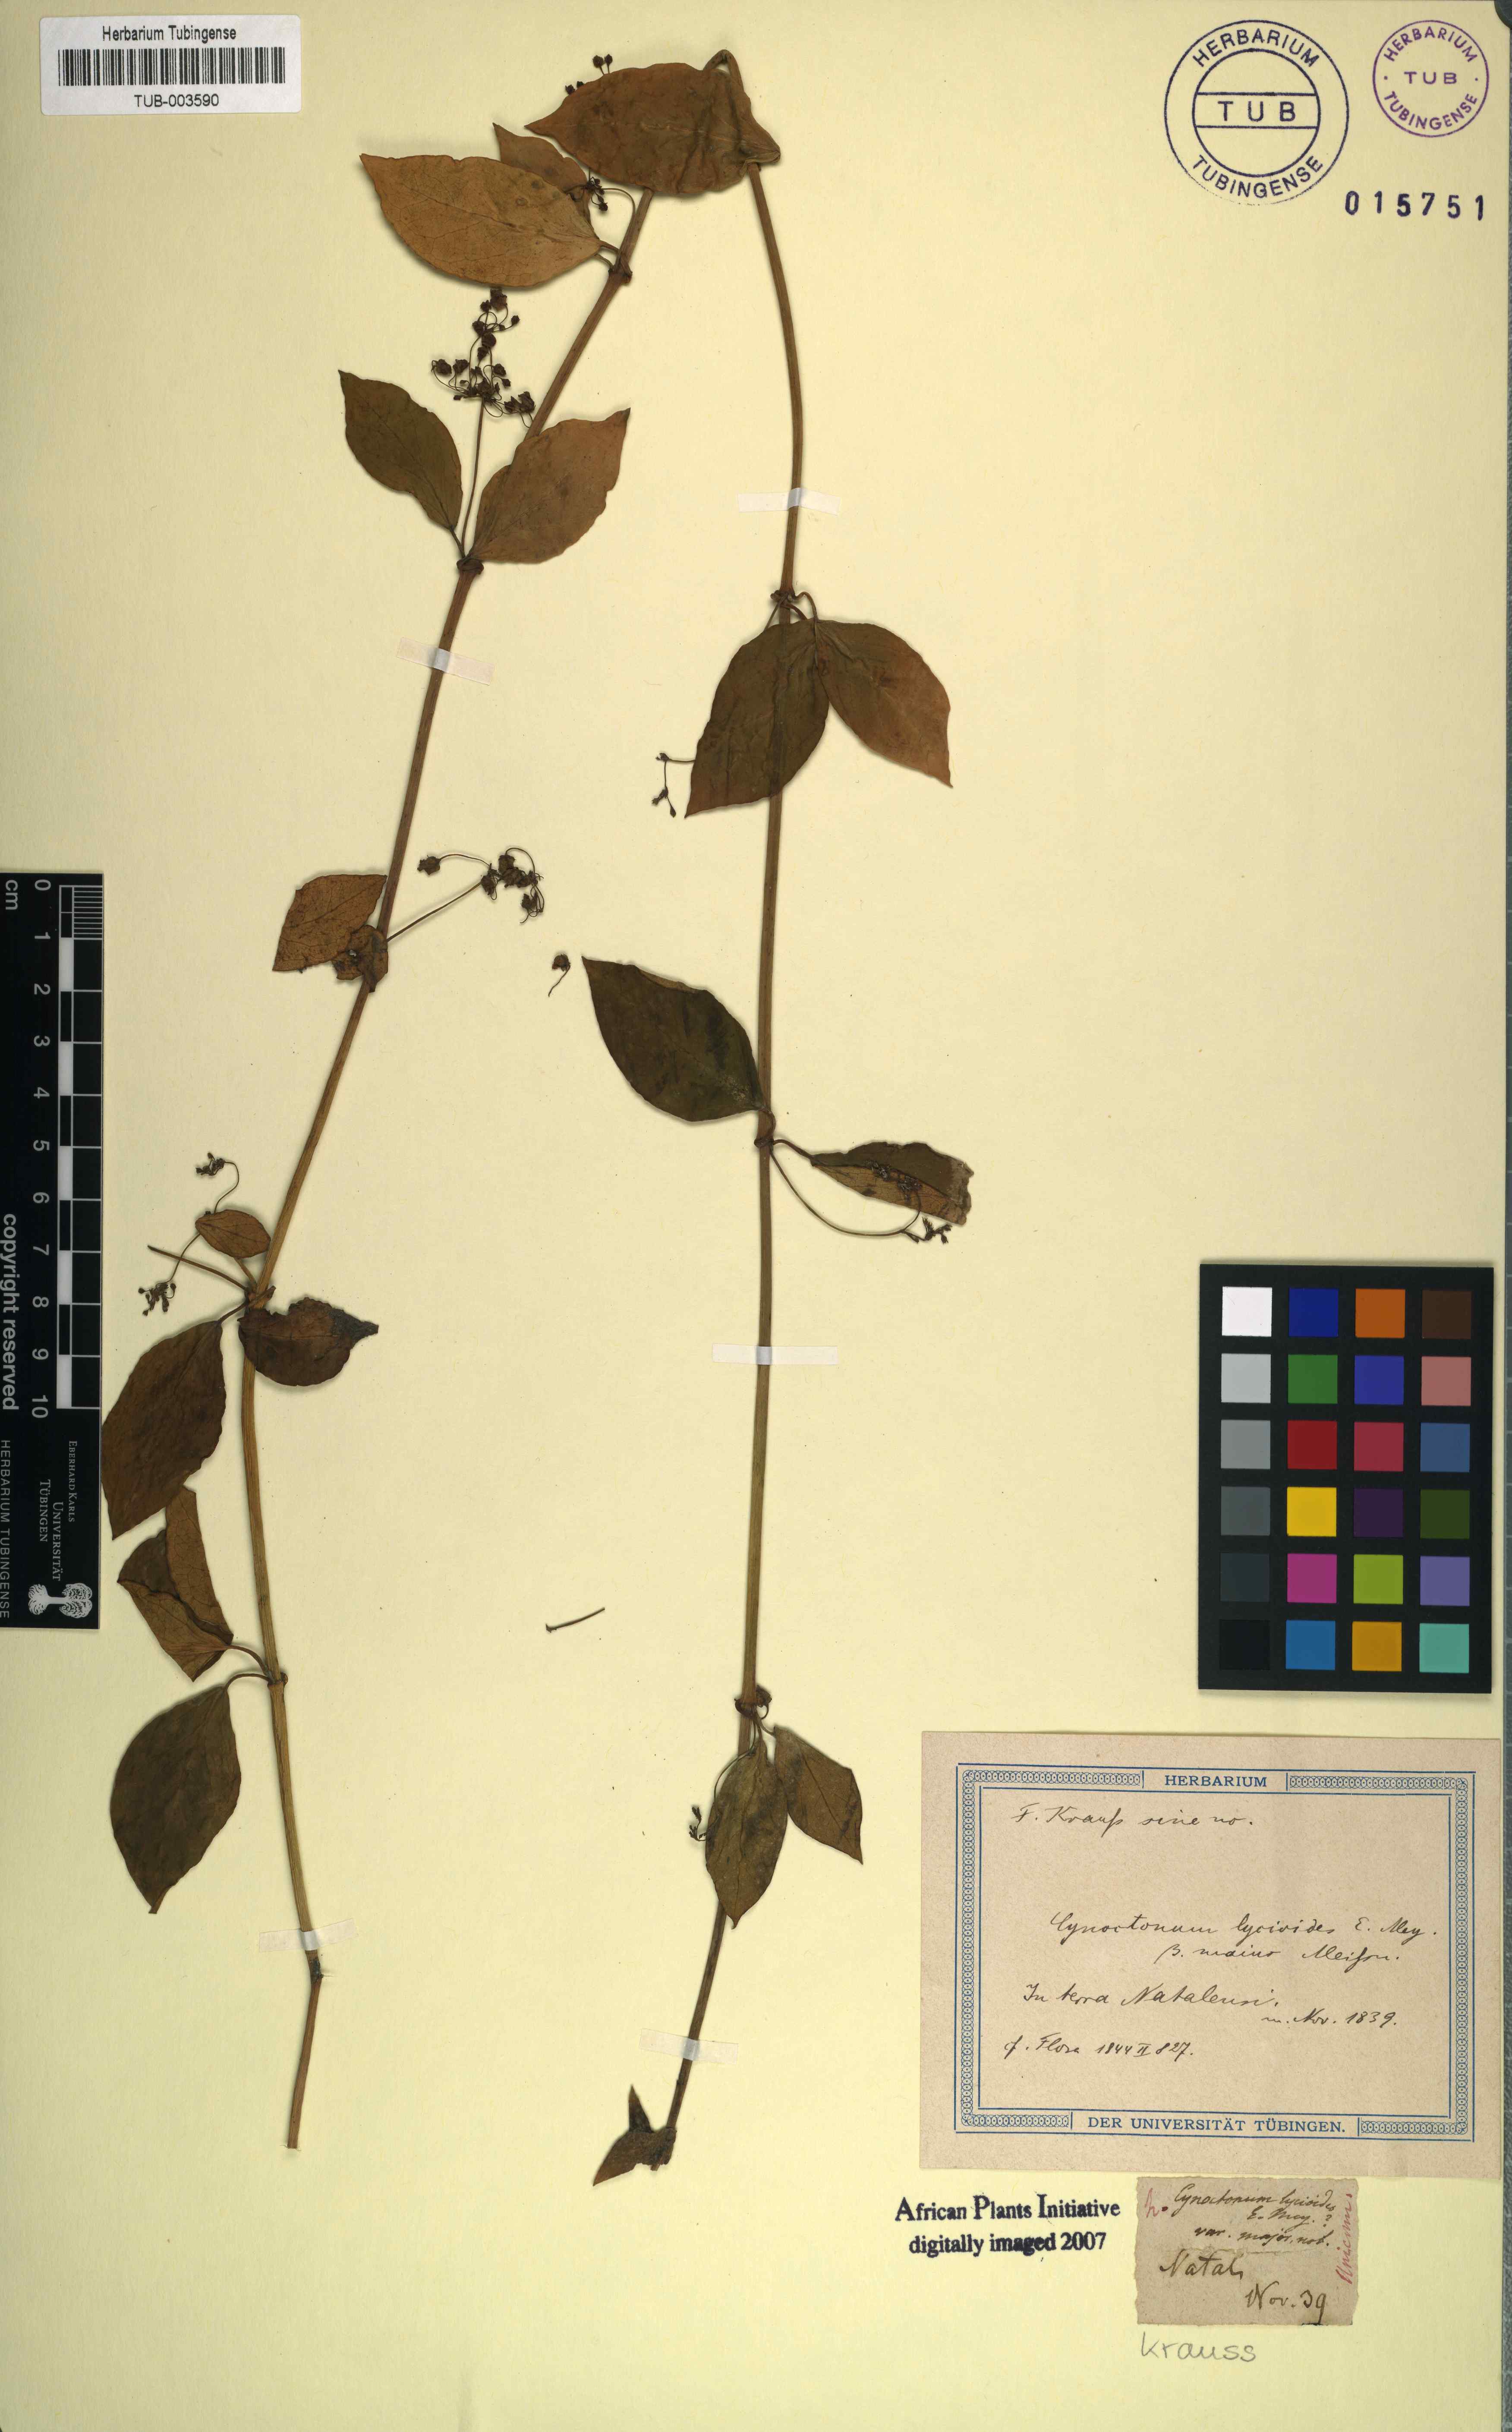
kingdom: Plantae
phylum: Tracheophyta
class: Magnoliopsida
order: Gentianales
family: Apocynaceae
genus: Vincetoxicum
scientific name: Vincetoxicum lycioides
